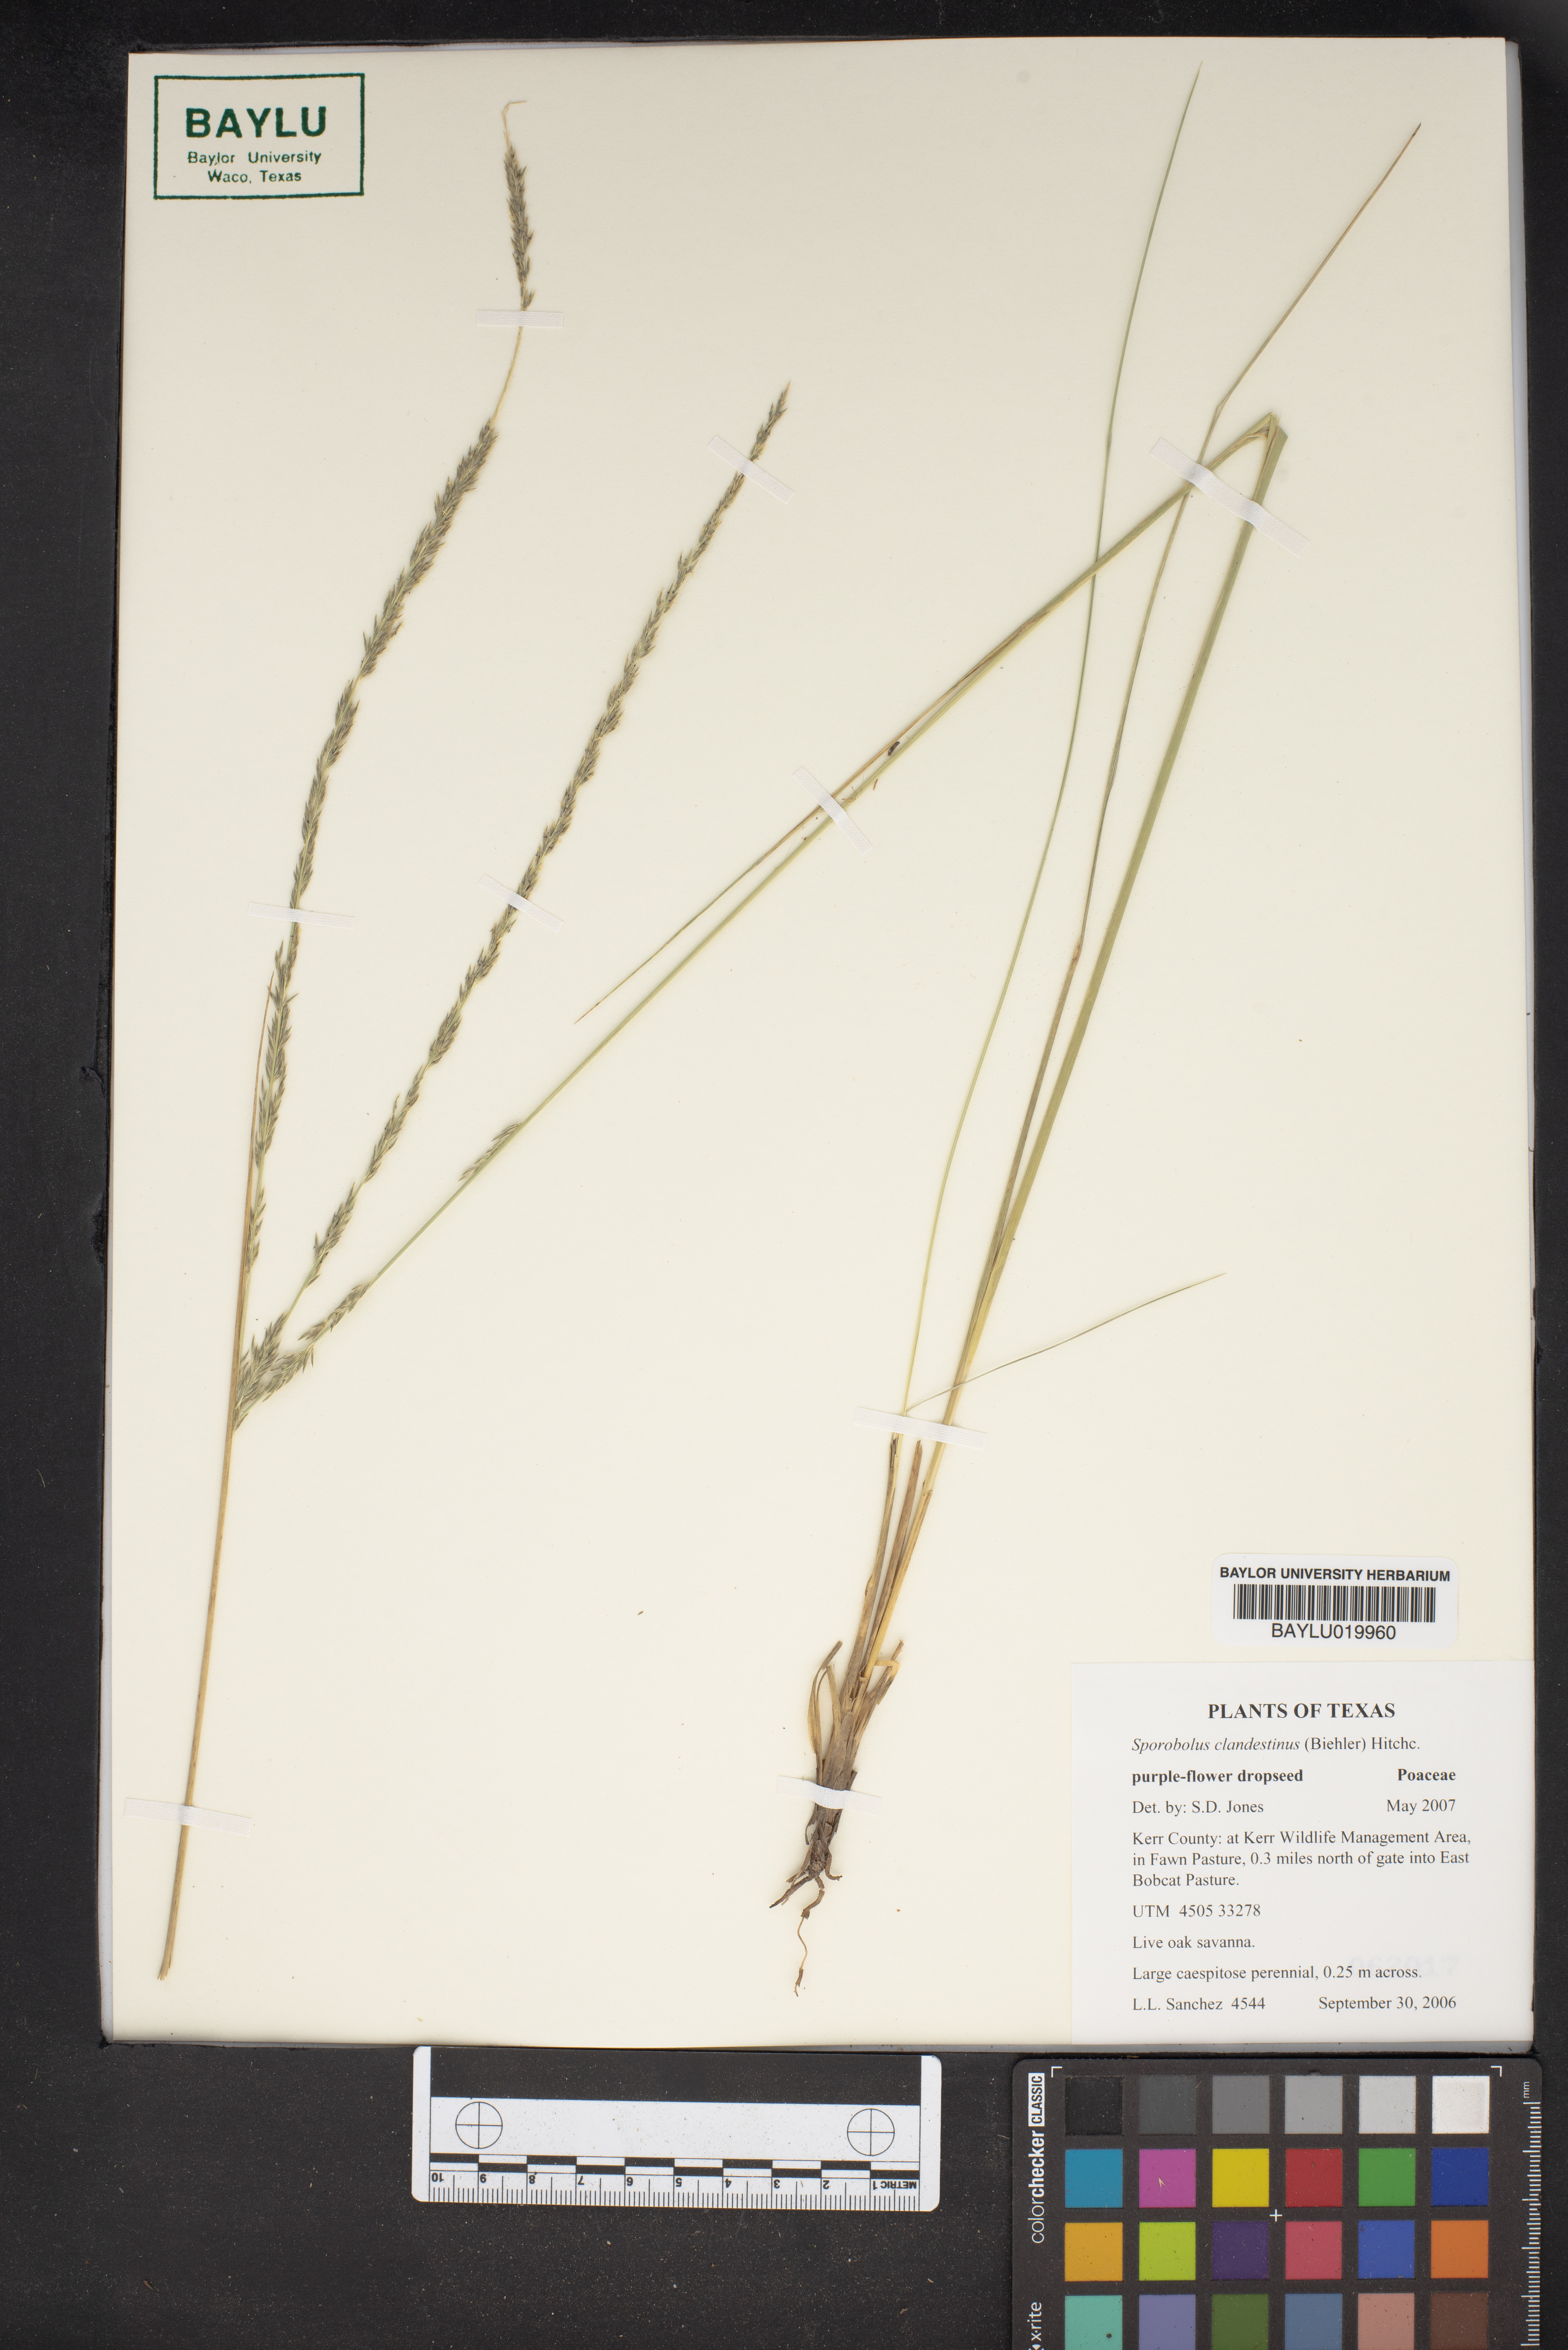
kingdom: Plantae
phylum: Tracheophyta
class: Liliopsida
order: Poales
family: Poaceae
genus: Sporobolus
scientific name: Sporobolus clandestinus
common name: Hidden dropseed
